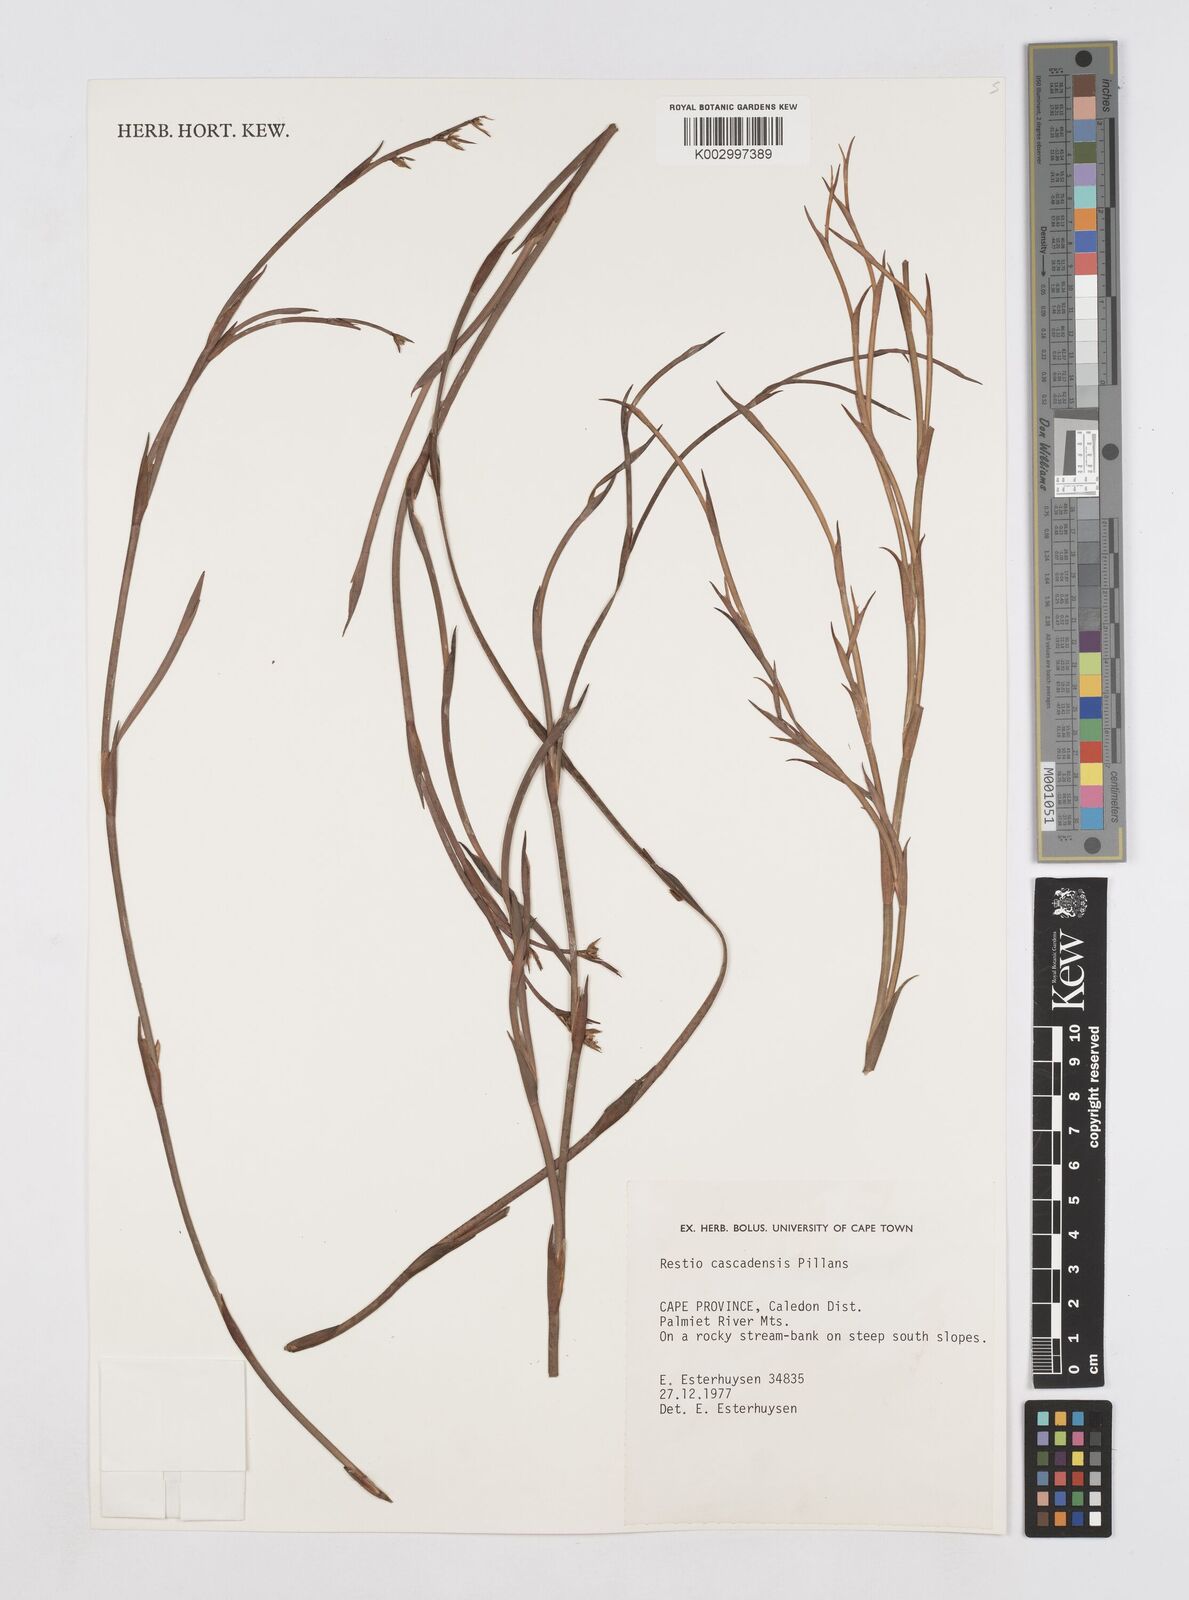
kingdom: Plantae
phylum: Tracheophyta
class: Liliopsida
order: Poales
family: Restionaceae
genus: Platycaulos
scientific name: Platycaulos cascadensis
